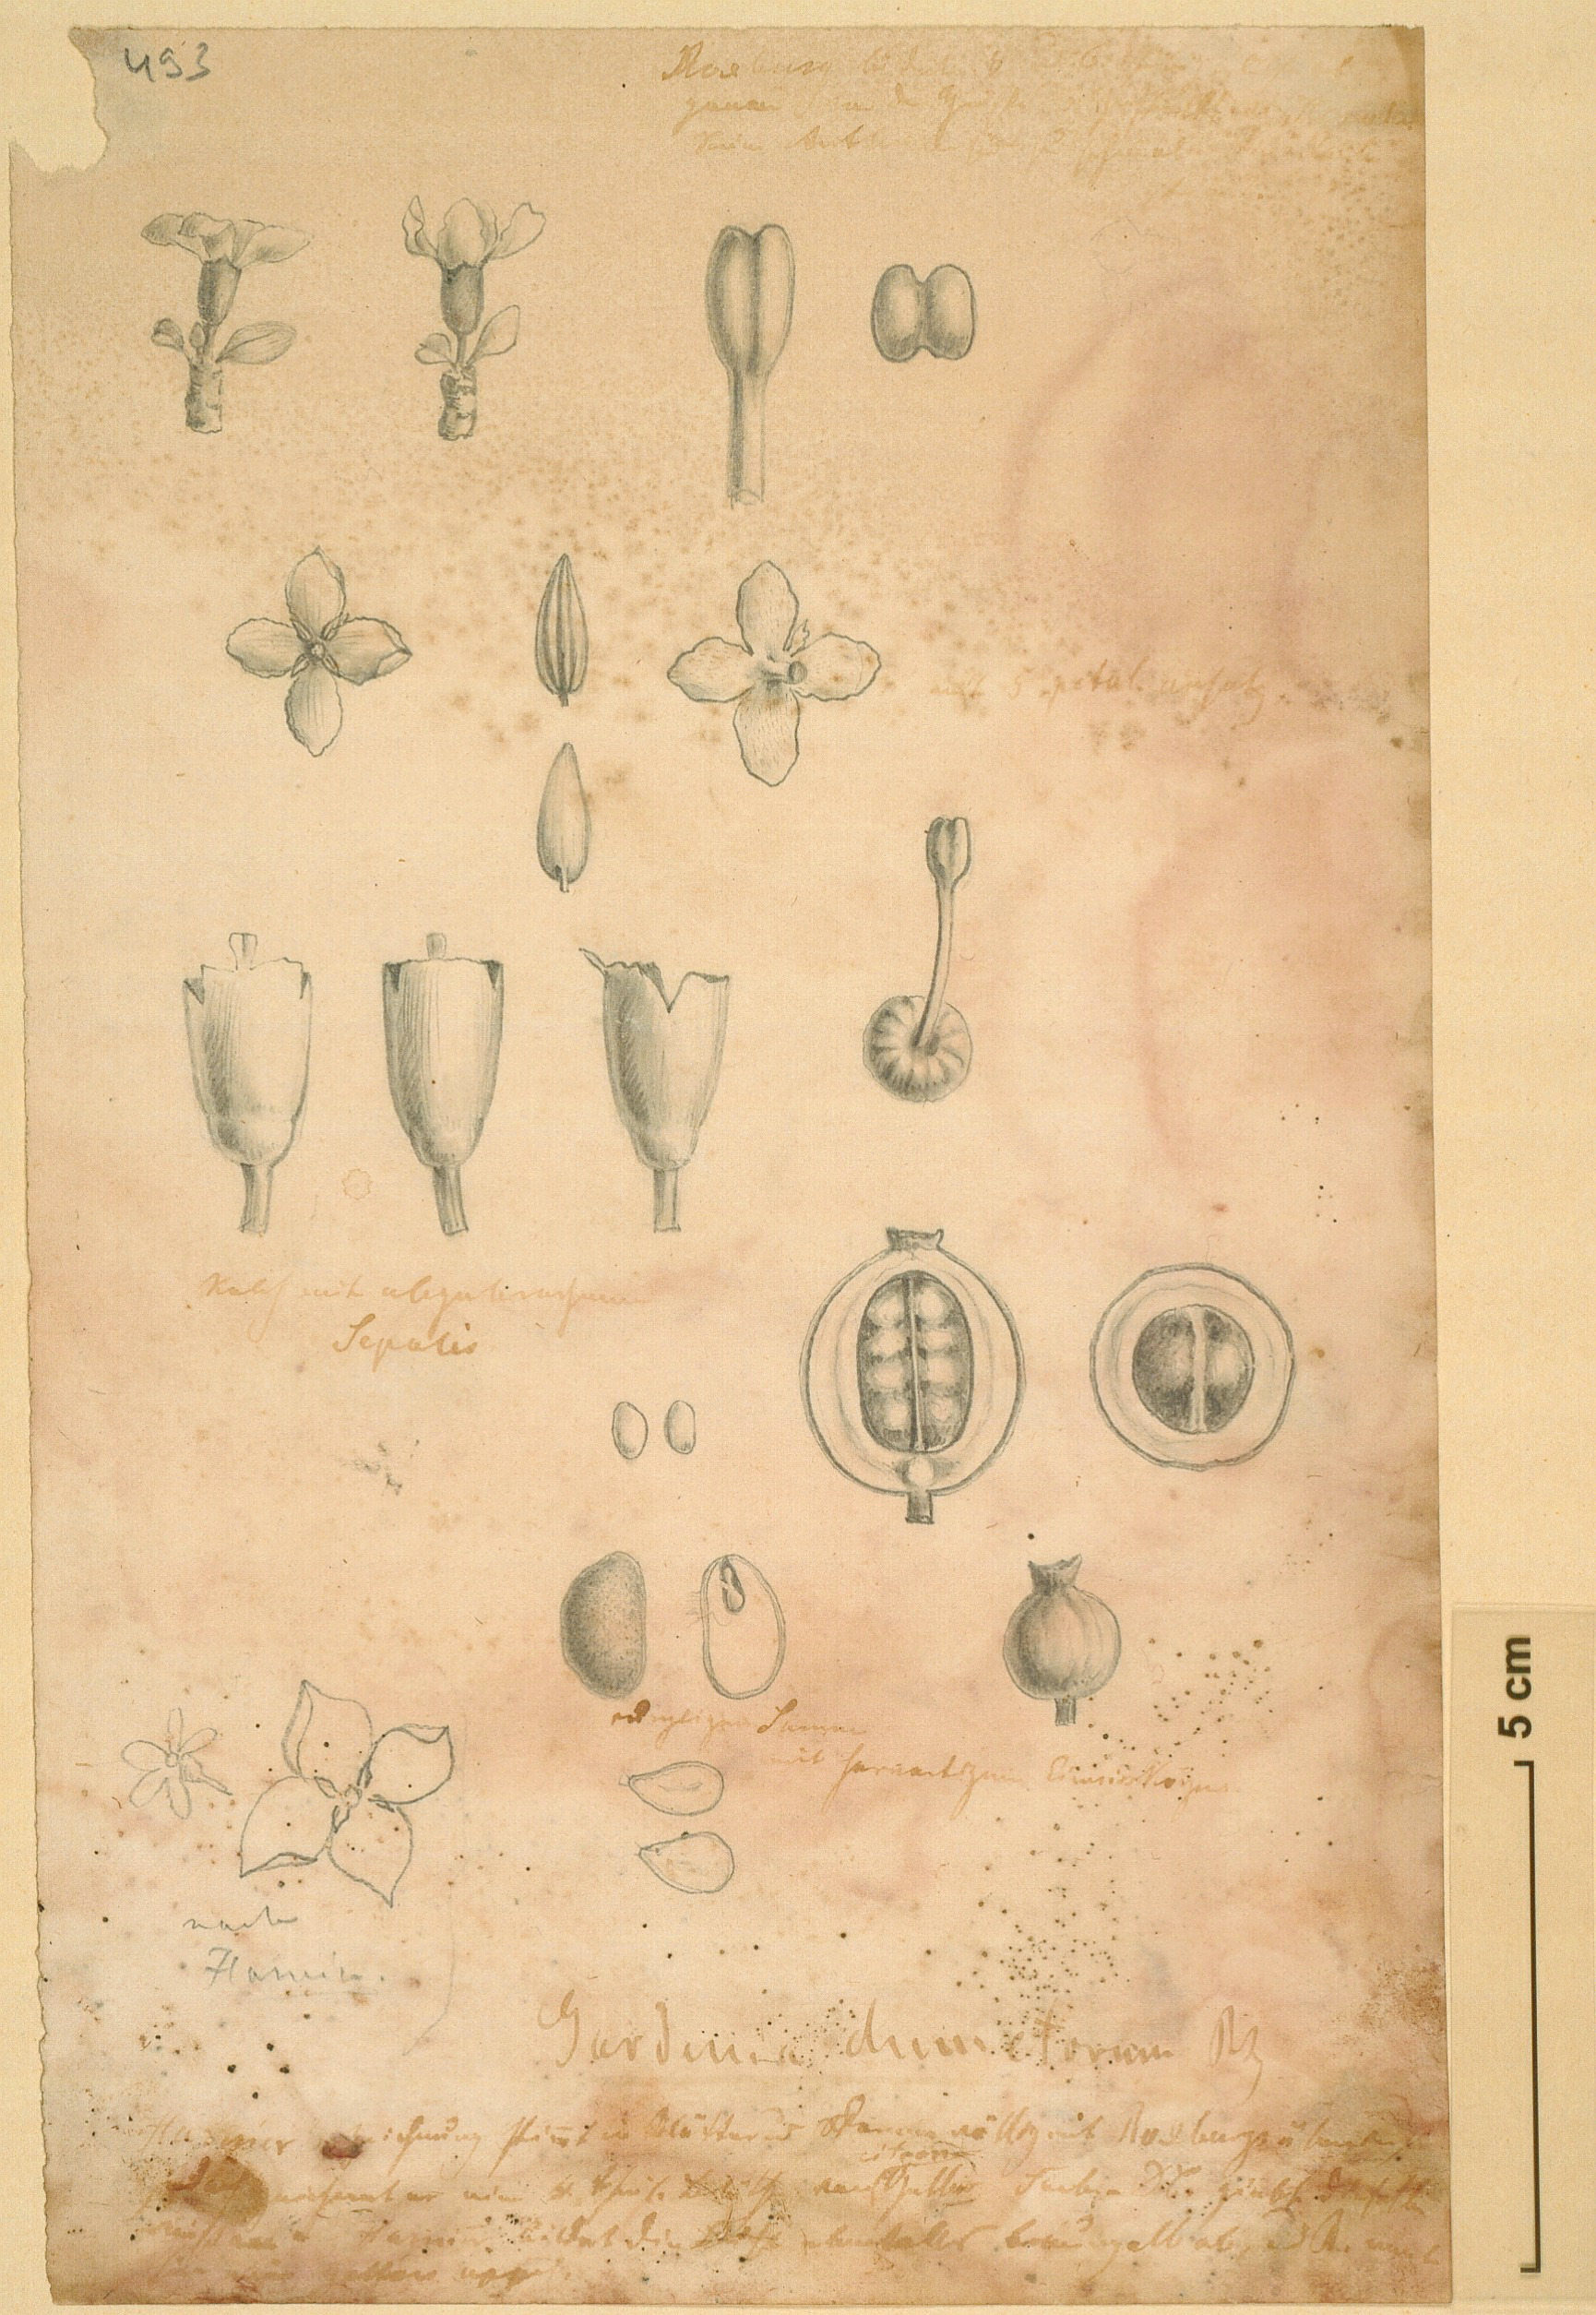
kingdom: Plantae
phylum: Tracheophyta
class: Magnoliopsida
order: Gentianales
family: Rubiaceae
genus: Catunaregam
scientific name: Catunaregam spinosa
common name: Emetic-nut
